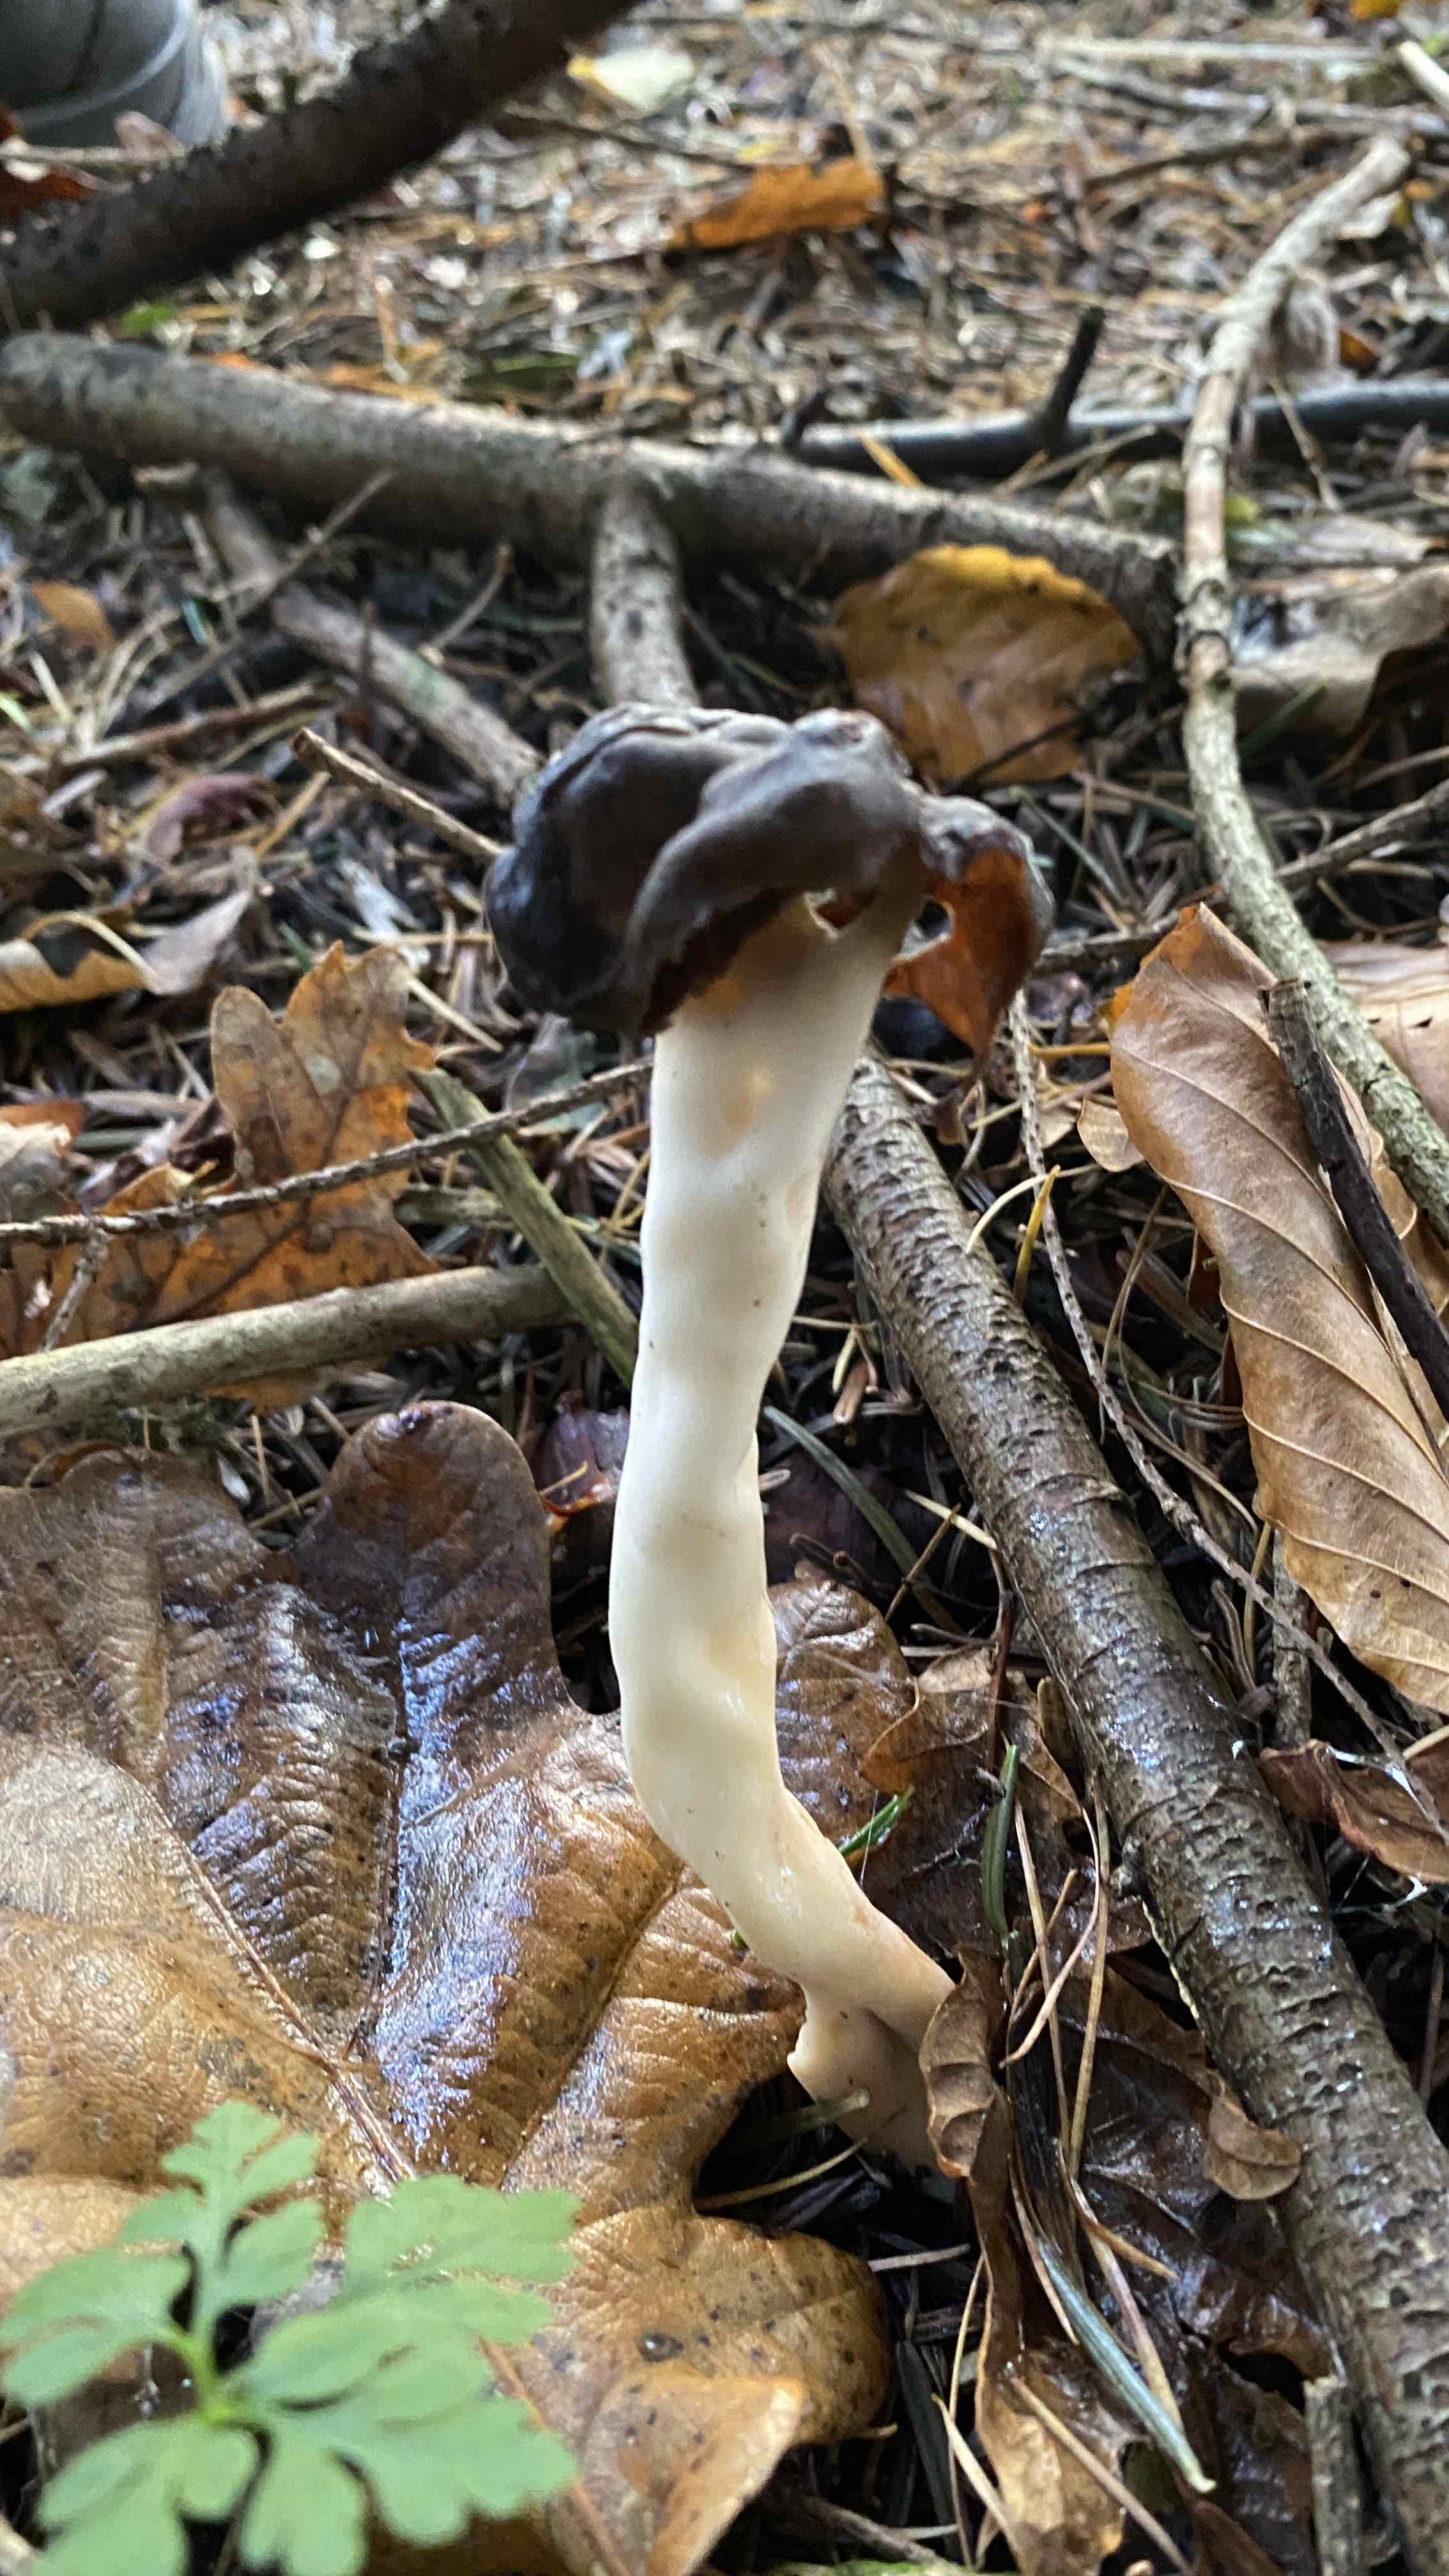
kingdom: Fungi
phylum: Ascomycota
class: Pezizomycetes
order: Pezizales
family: Helvellaceae
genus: Helvella
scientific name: Helvella elastica
